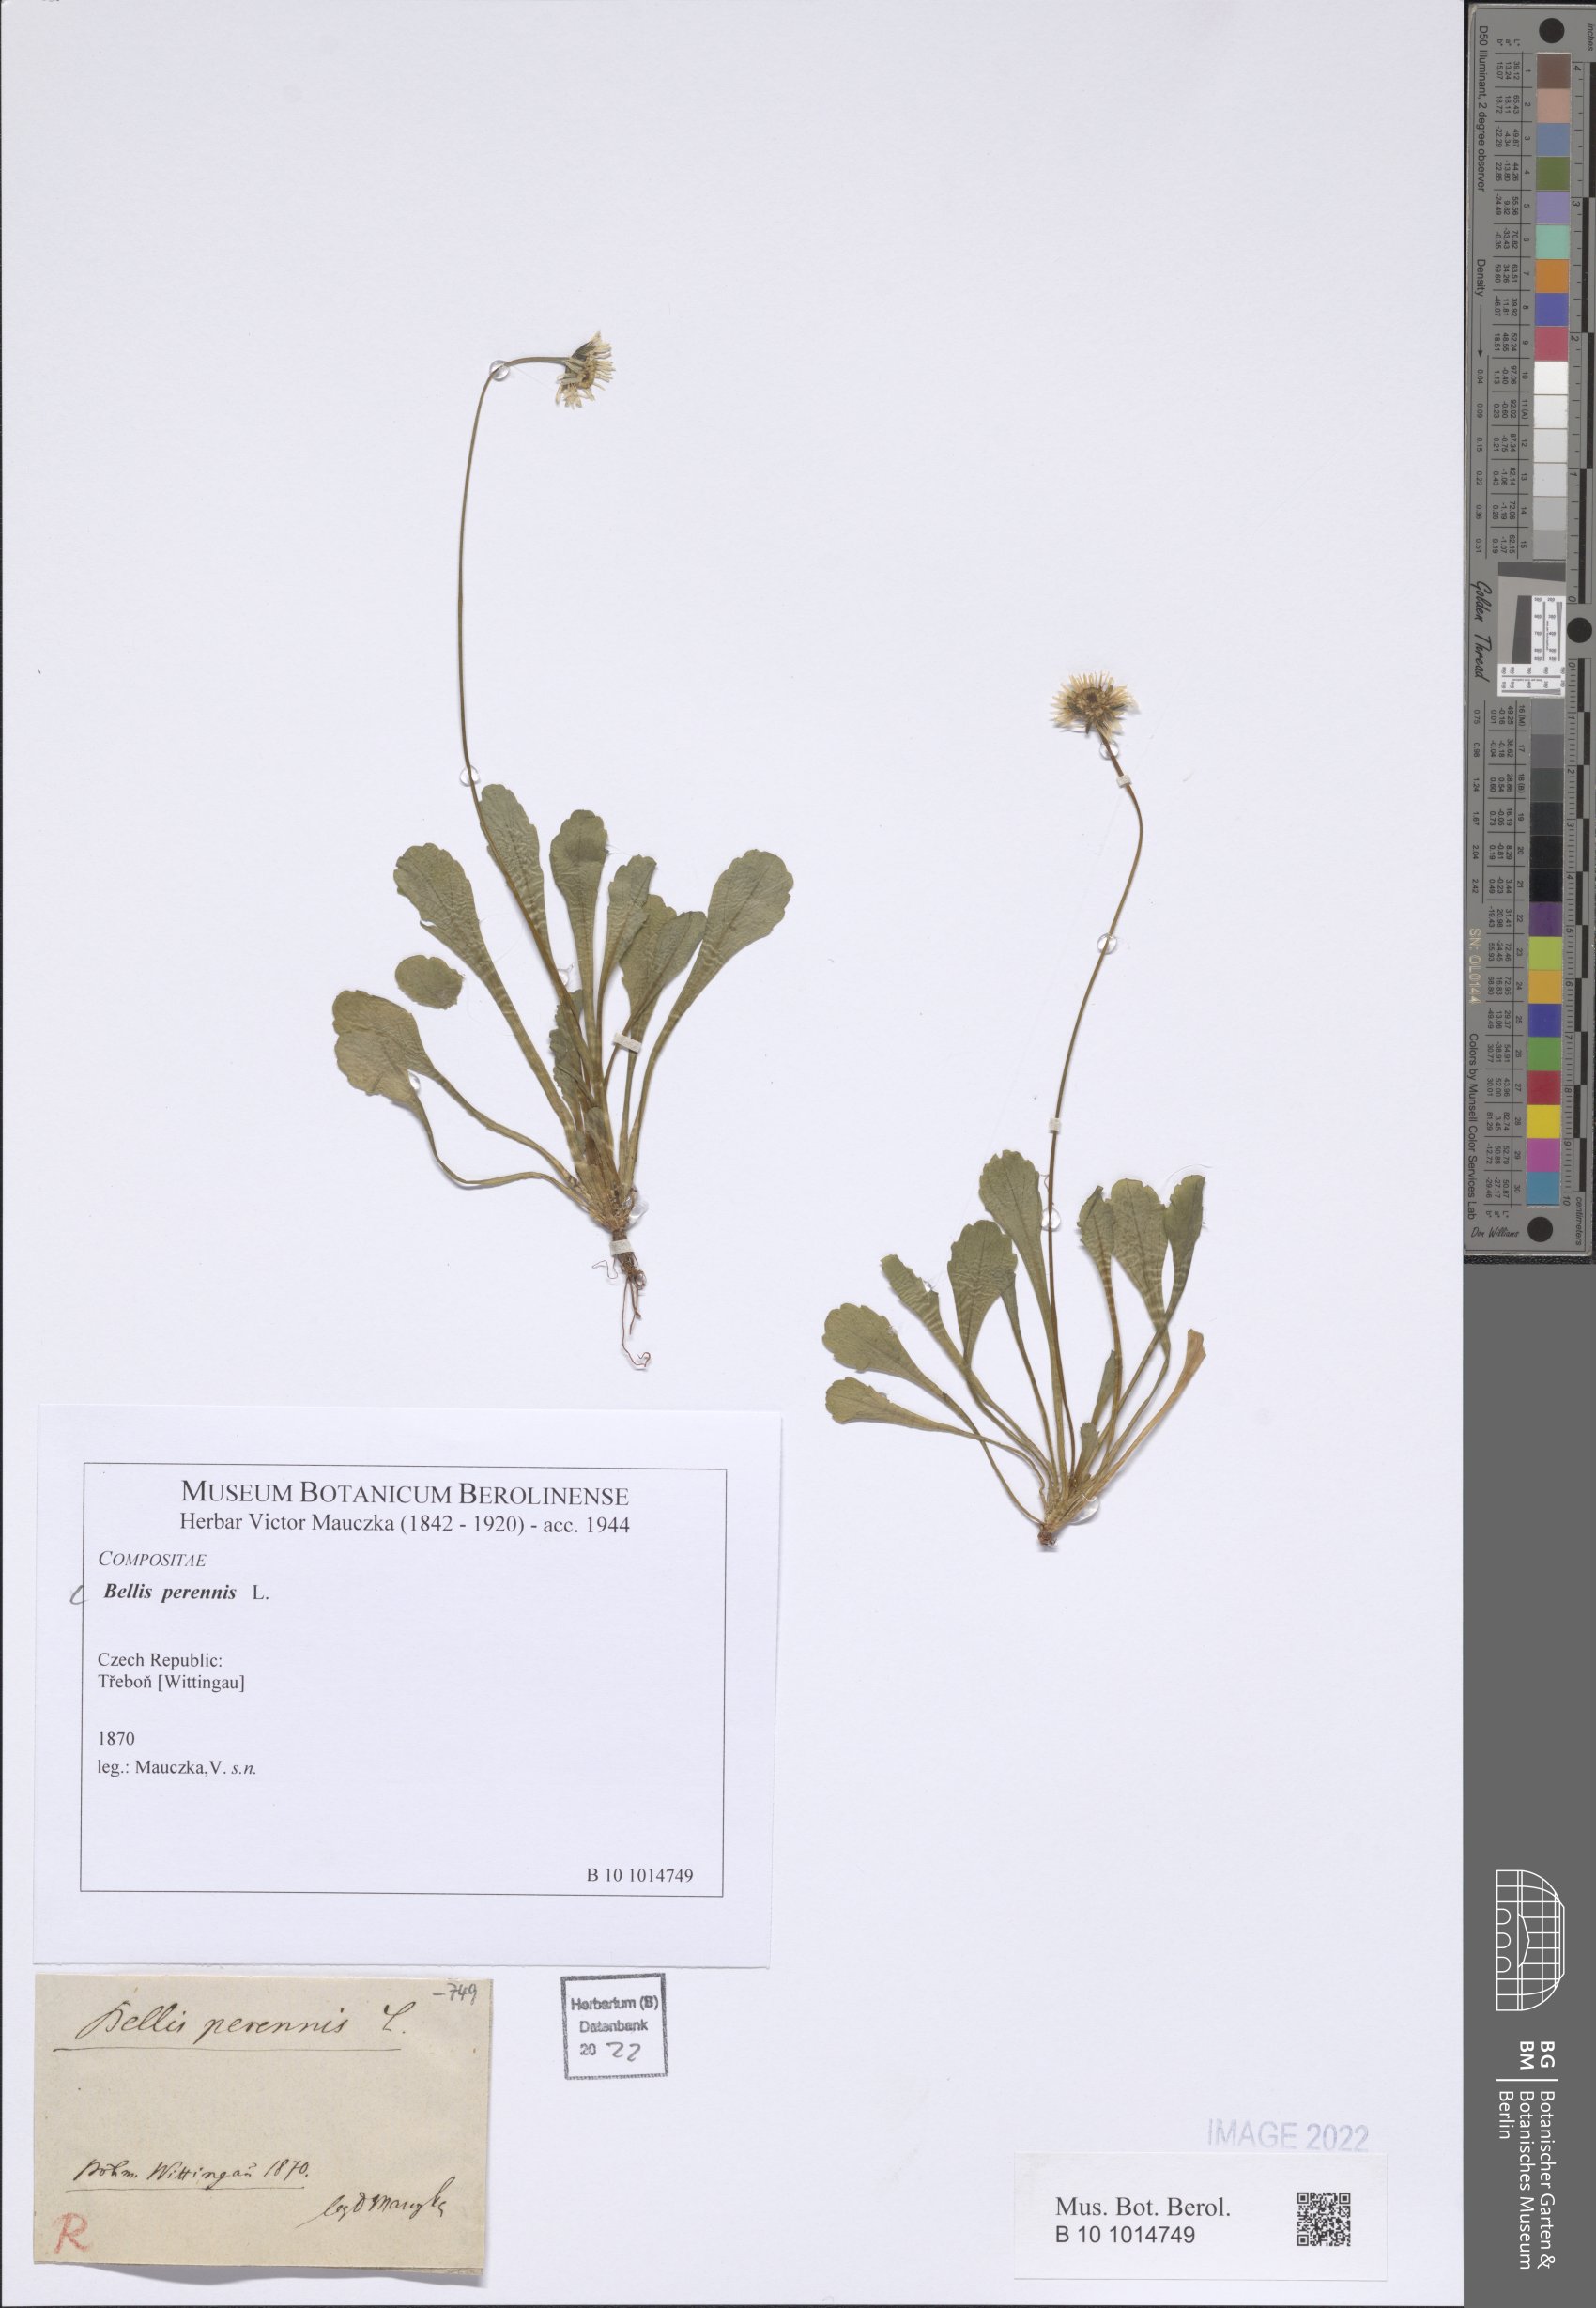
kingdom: Plantae
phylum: Tracheophyta
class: Magnoliopsida
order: Asterales
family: Asteraceae
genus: Bellis
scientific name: Bellis perennis
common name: Lawndaisy
